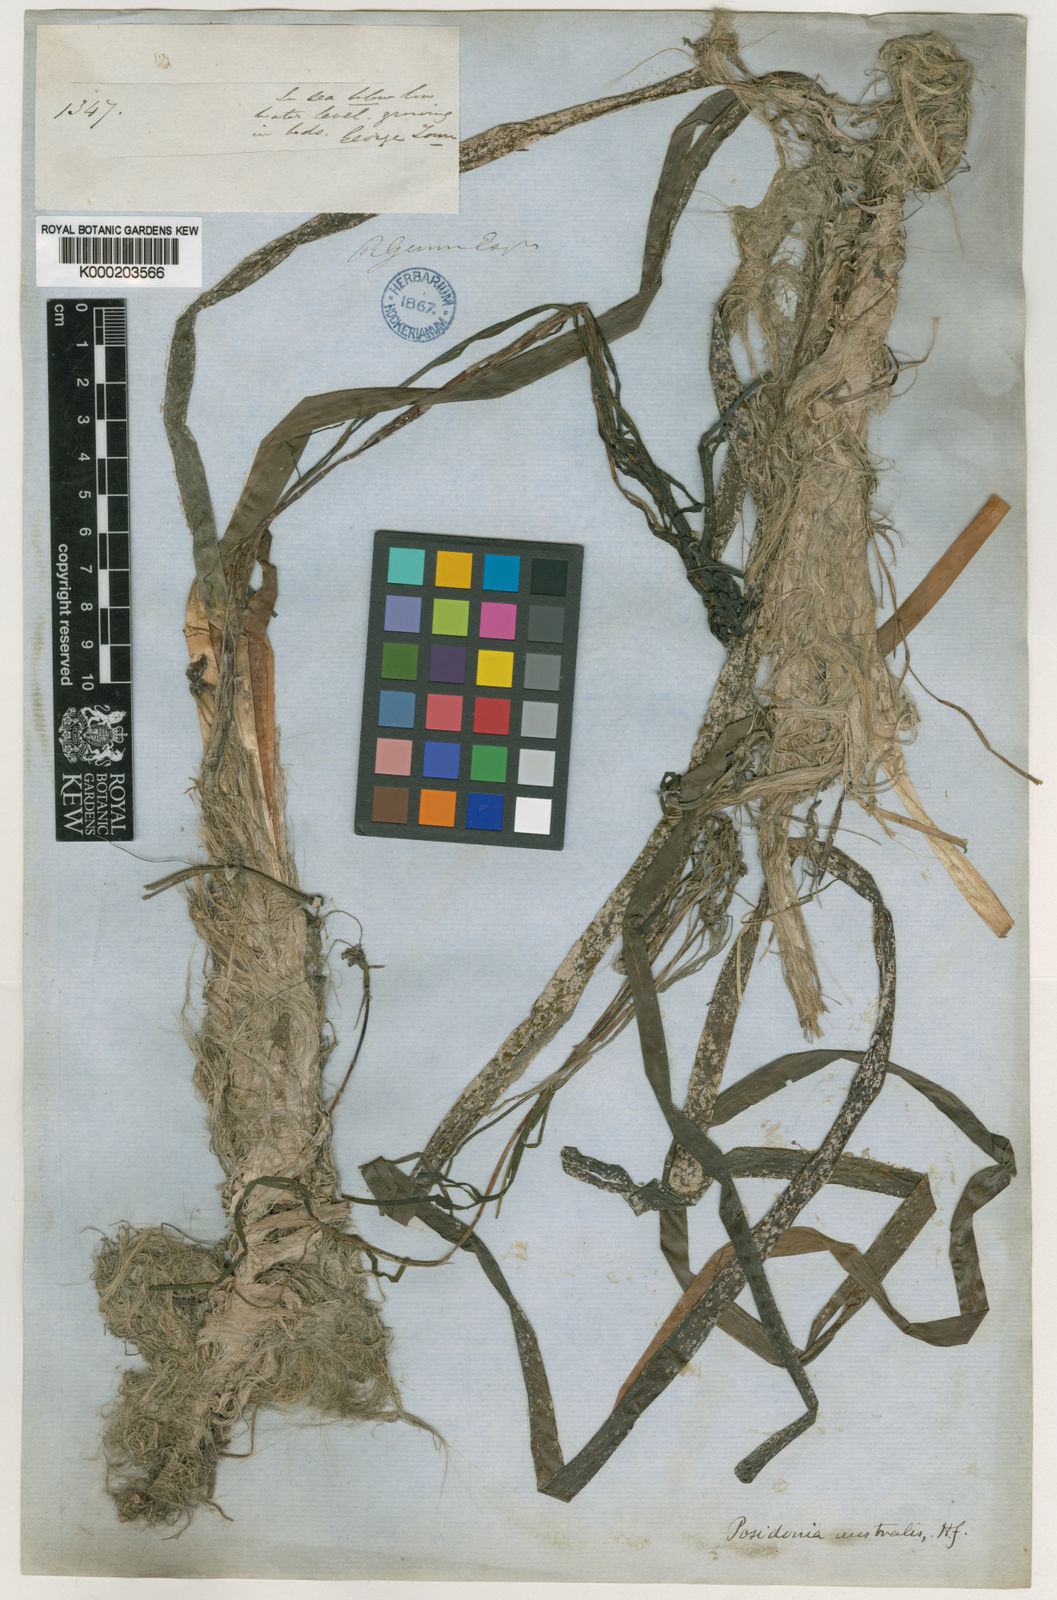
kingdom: Plantae
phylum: Tracheophyta
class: Liliopsida
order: Alismatales
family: Posidoniaceae
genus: Posidonia
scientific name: Posidonia australis
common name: Species code: pa
